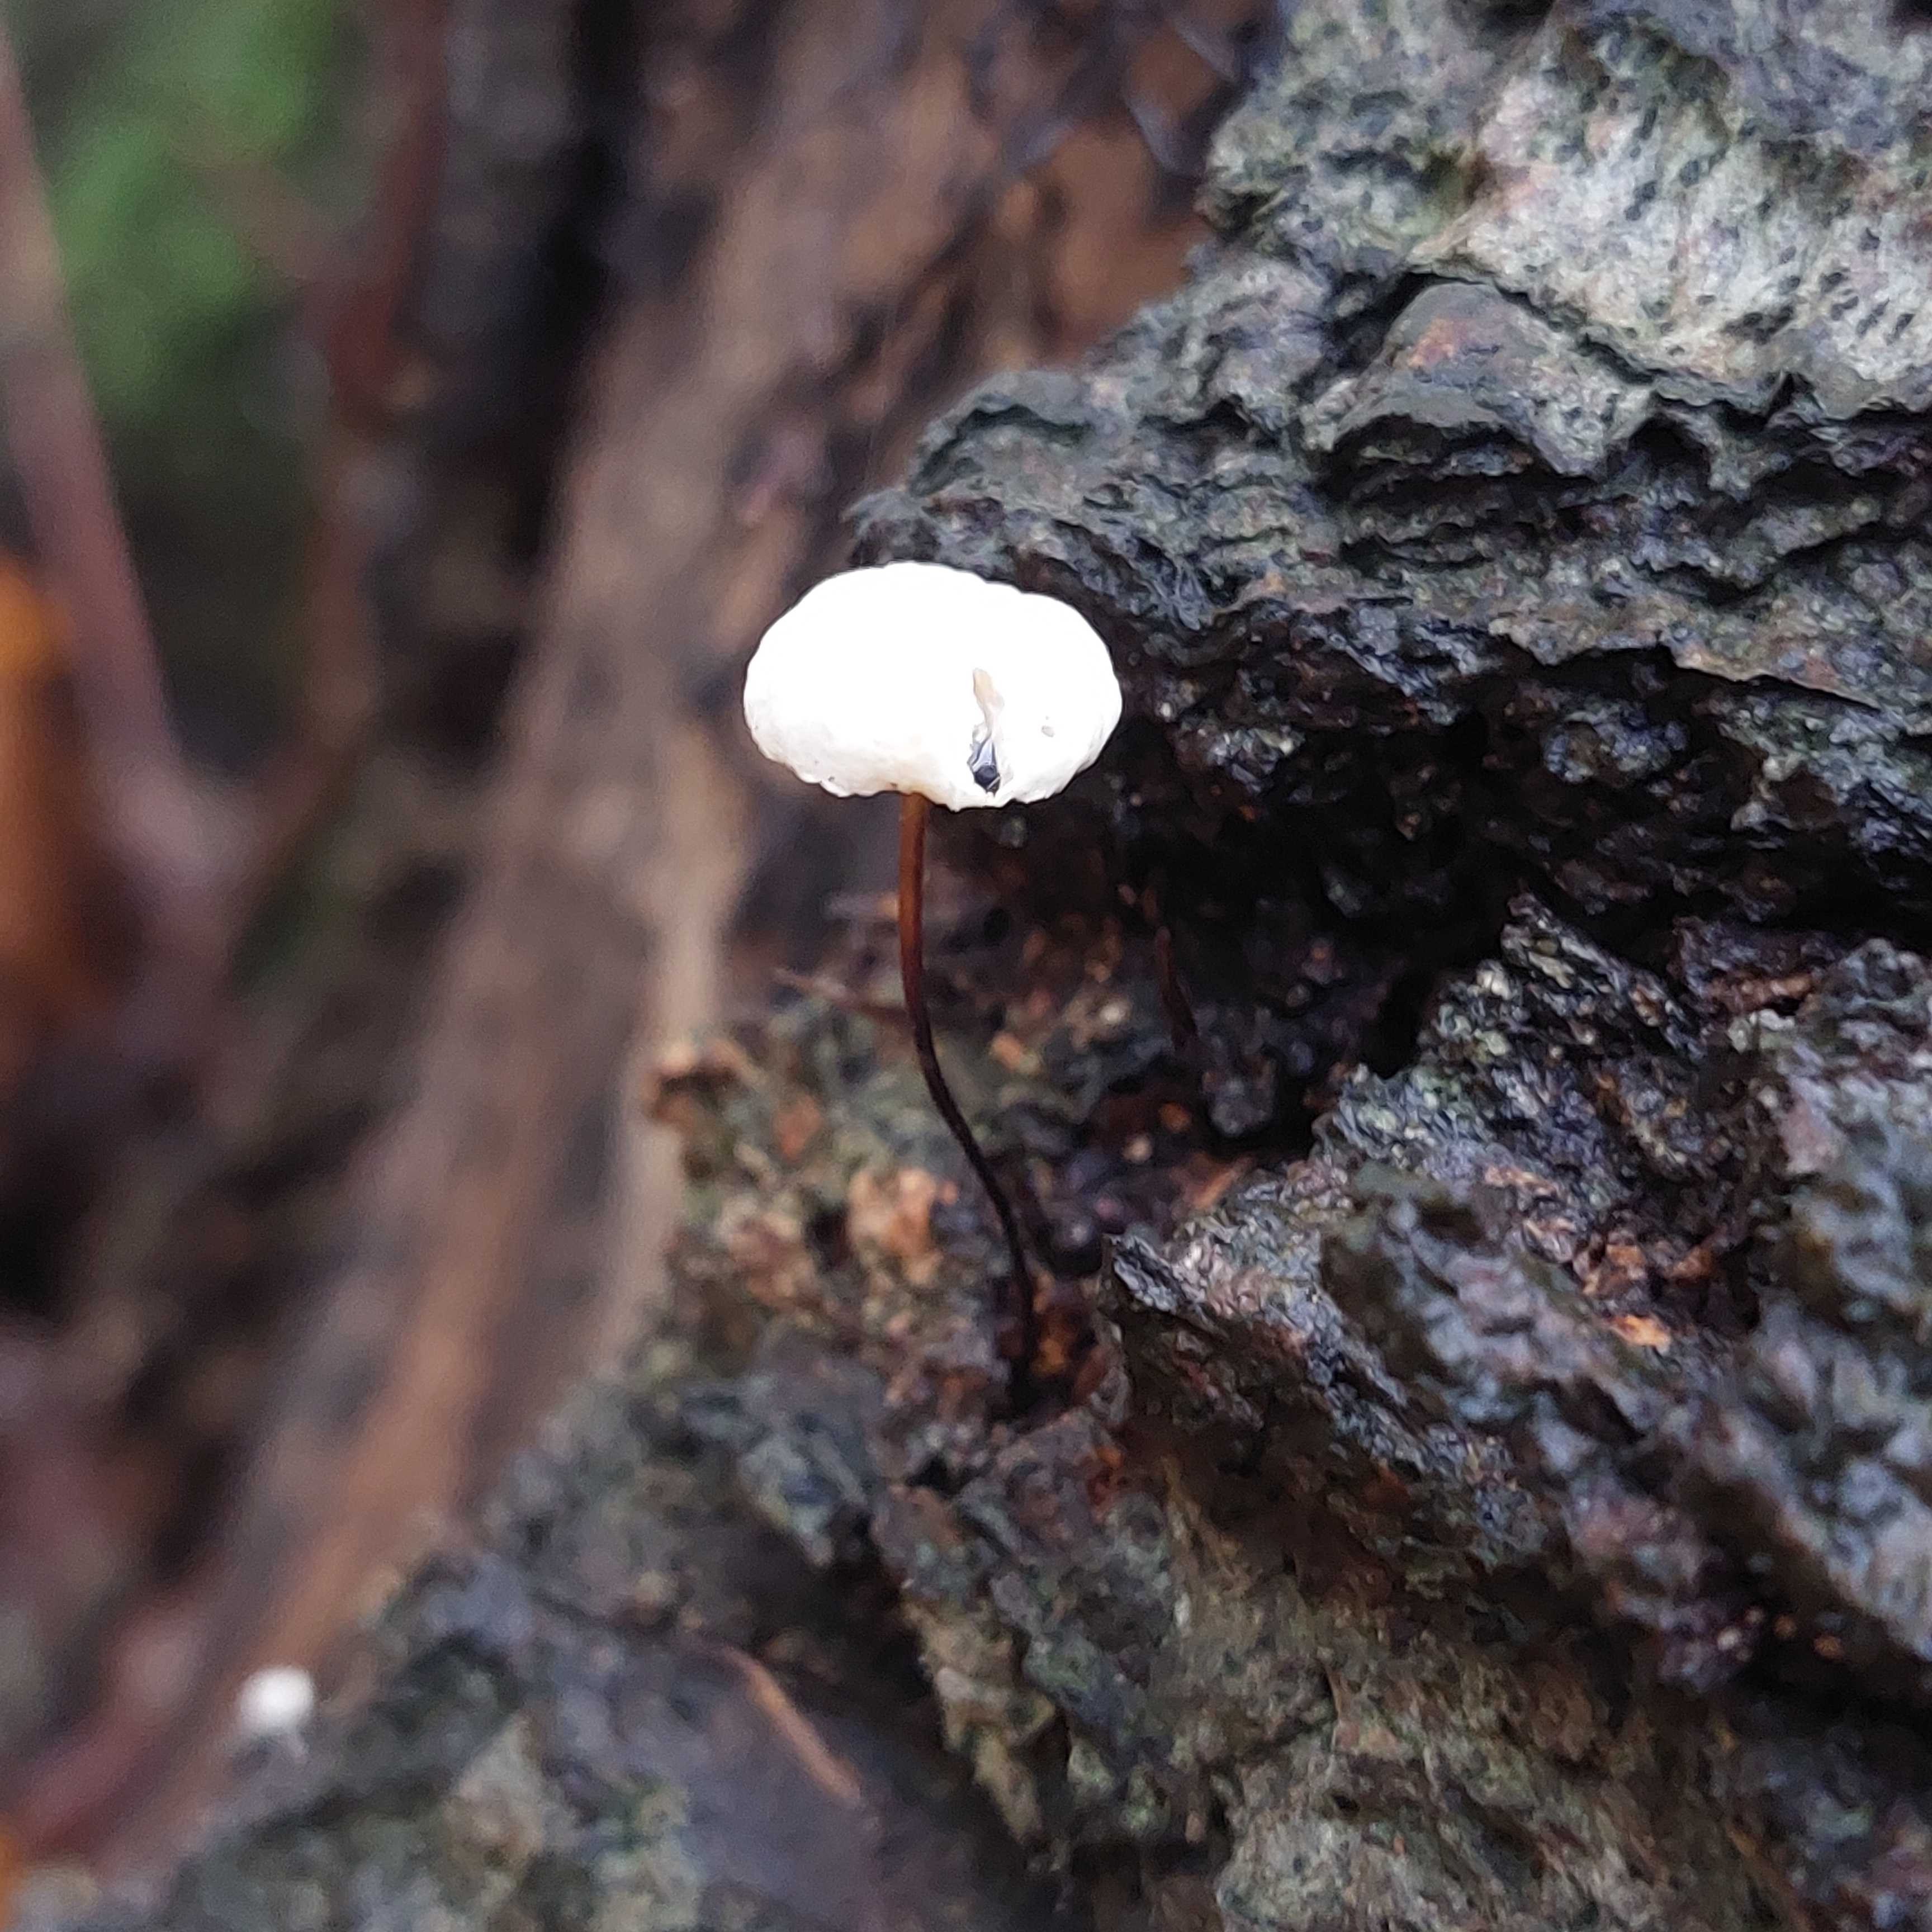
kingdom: Fungi
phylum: Basidiomycota
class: Agaricomycetes
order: Agaricales
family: Marasmiaceae
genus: Marasmius
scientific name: Marasmius rotula
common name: hjul-bruskhat
